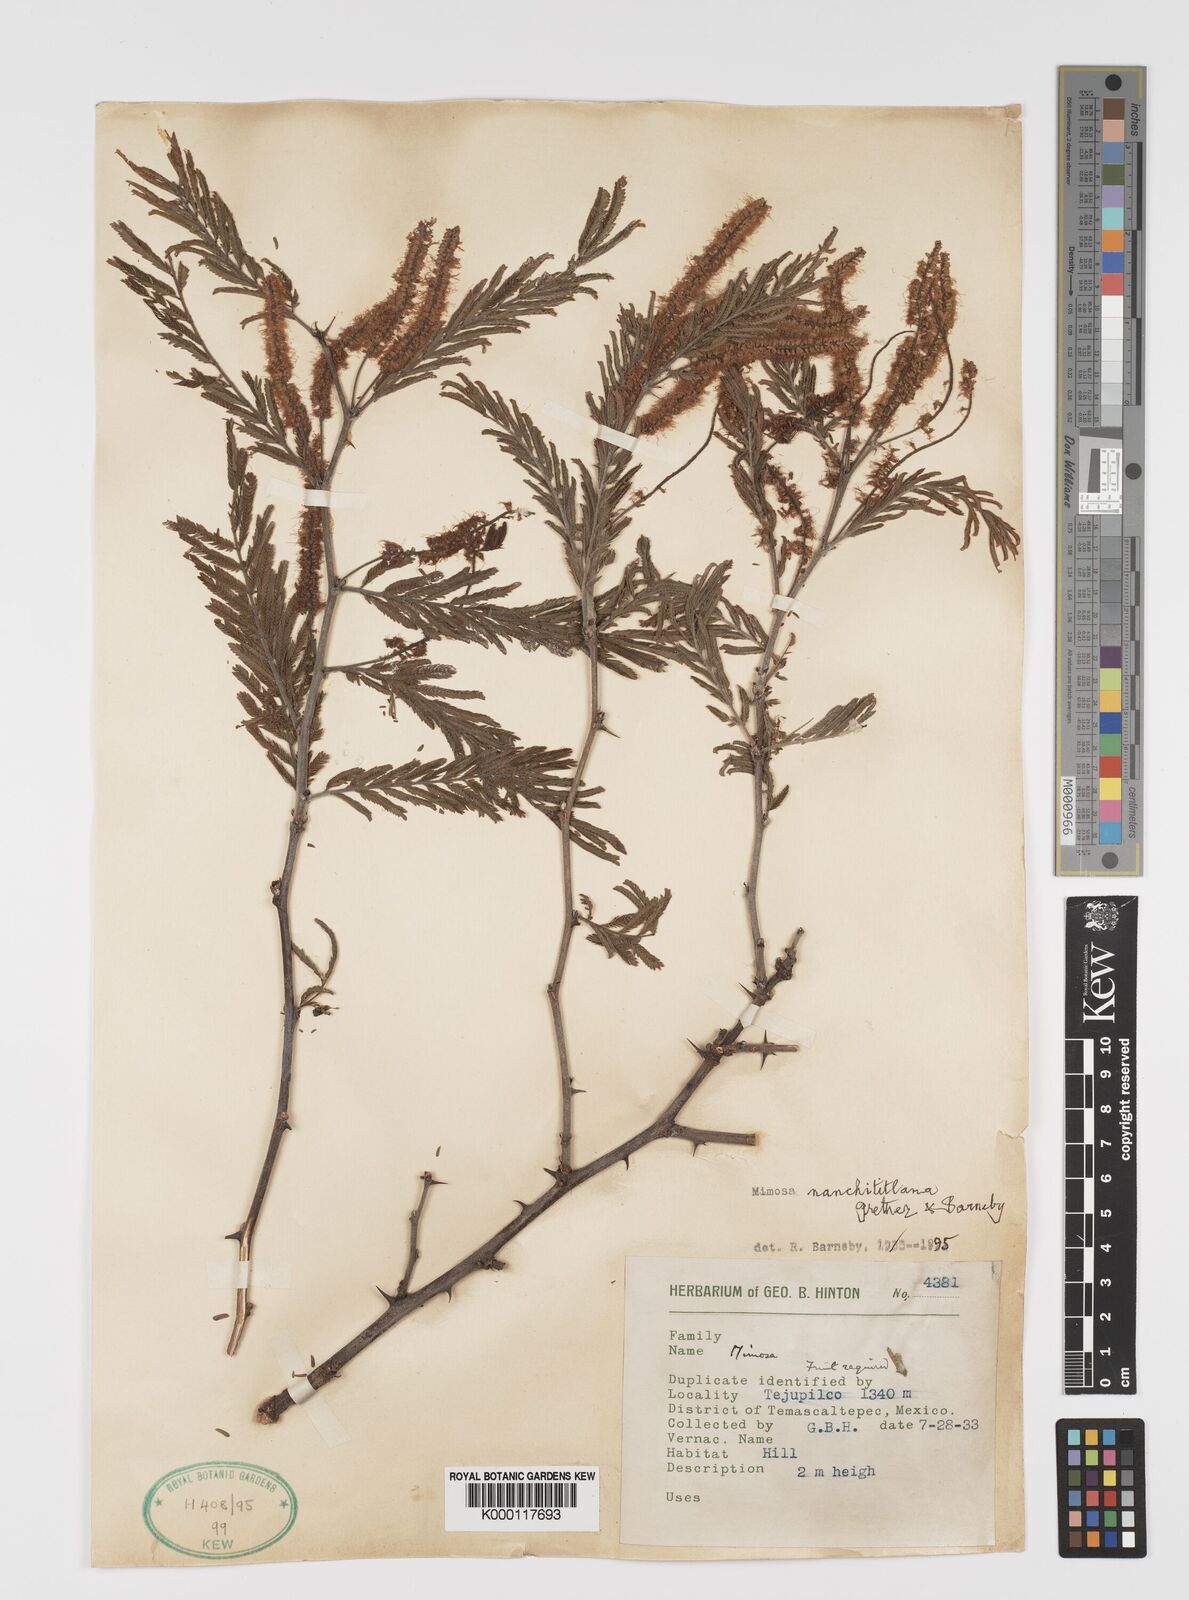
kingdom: Plantae
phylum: Tracheophyta
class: Magnoliopsida
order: Fabales
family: Fabaceae
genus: Mimosa
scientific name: Mimosa nanchititlana
